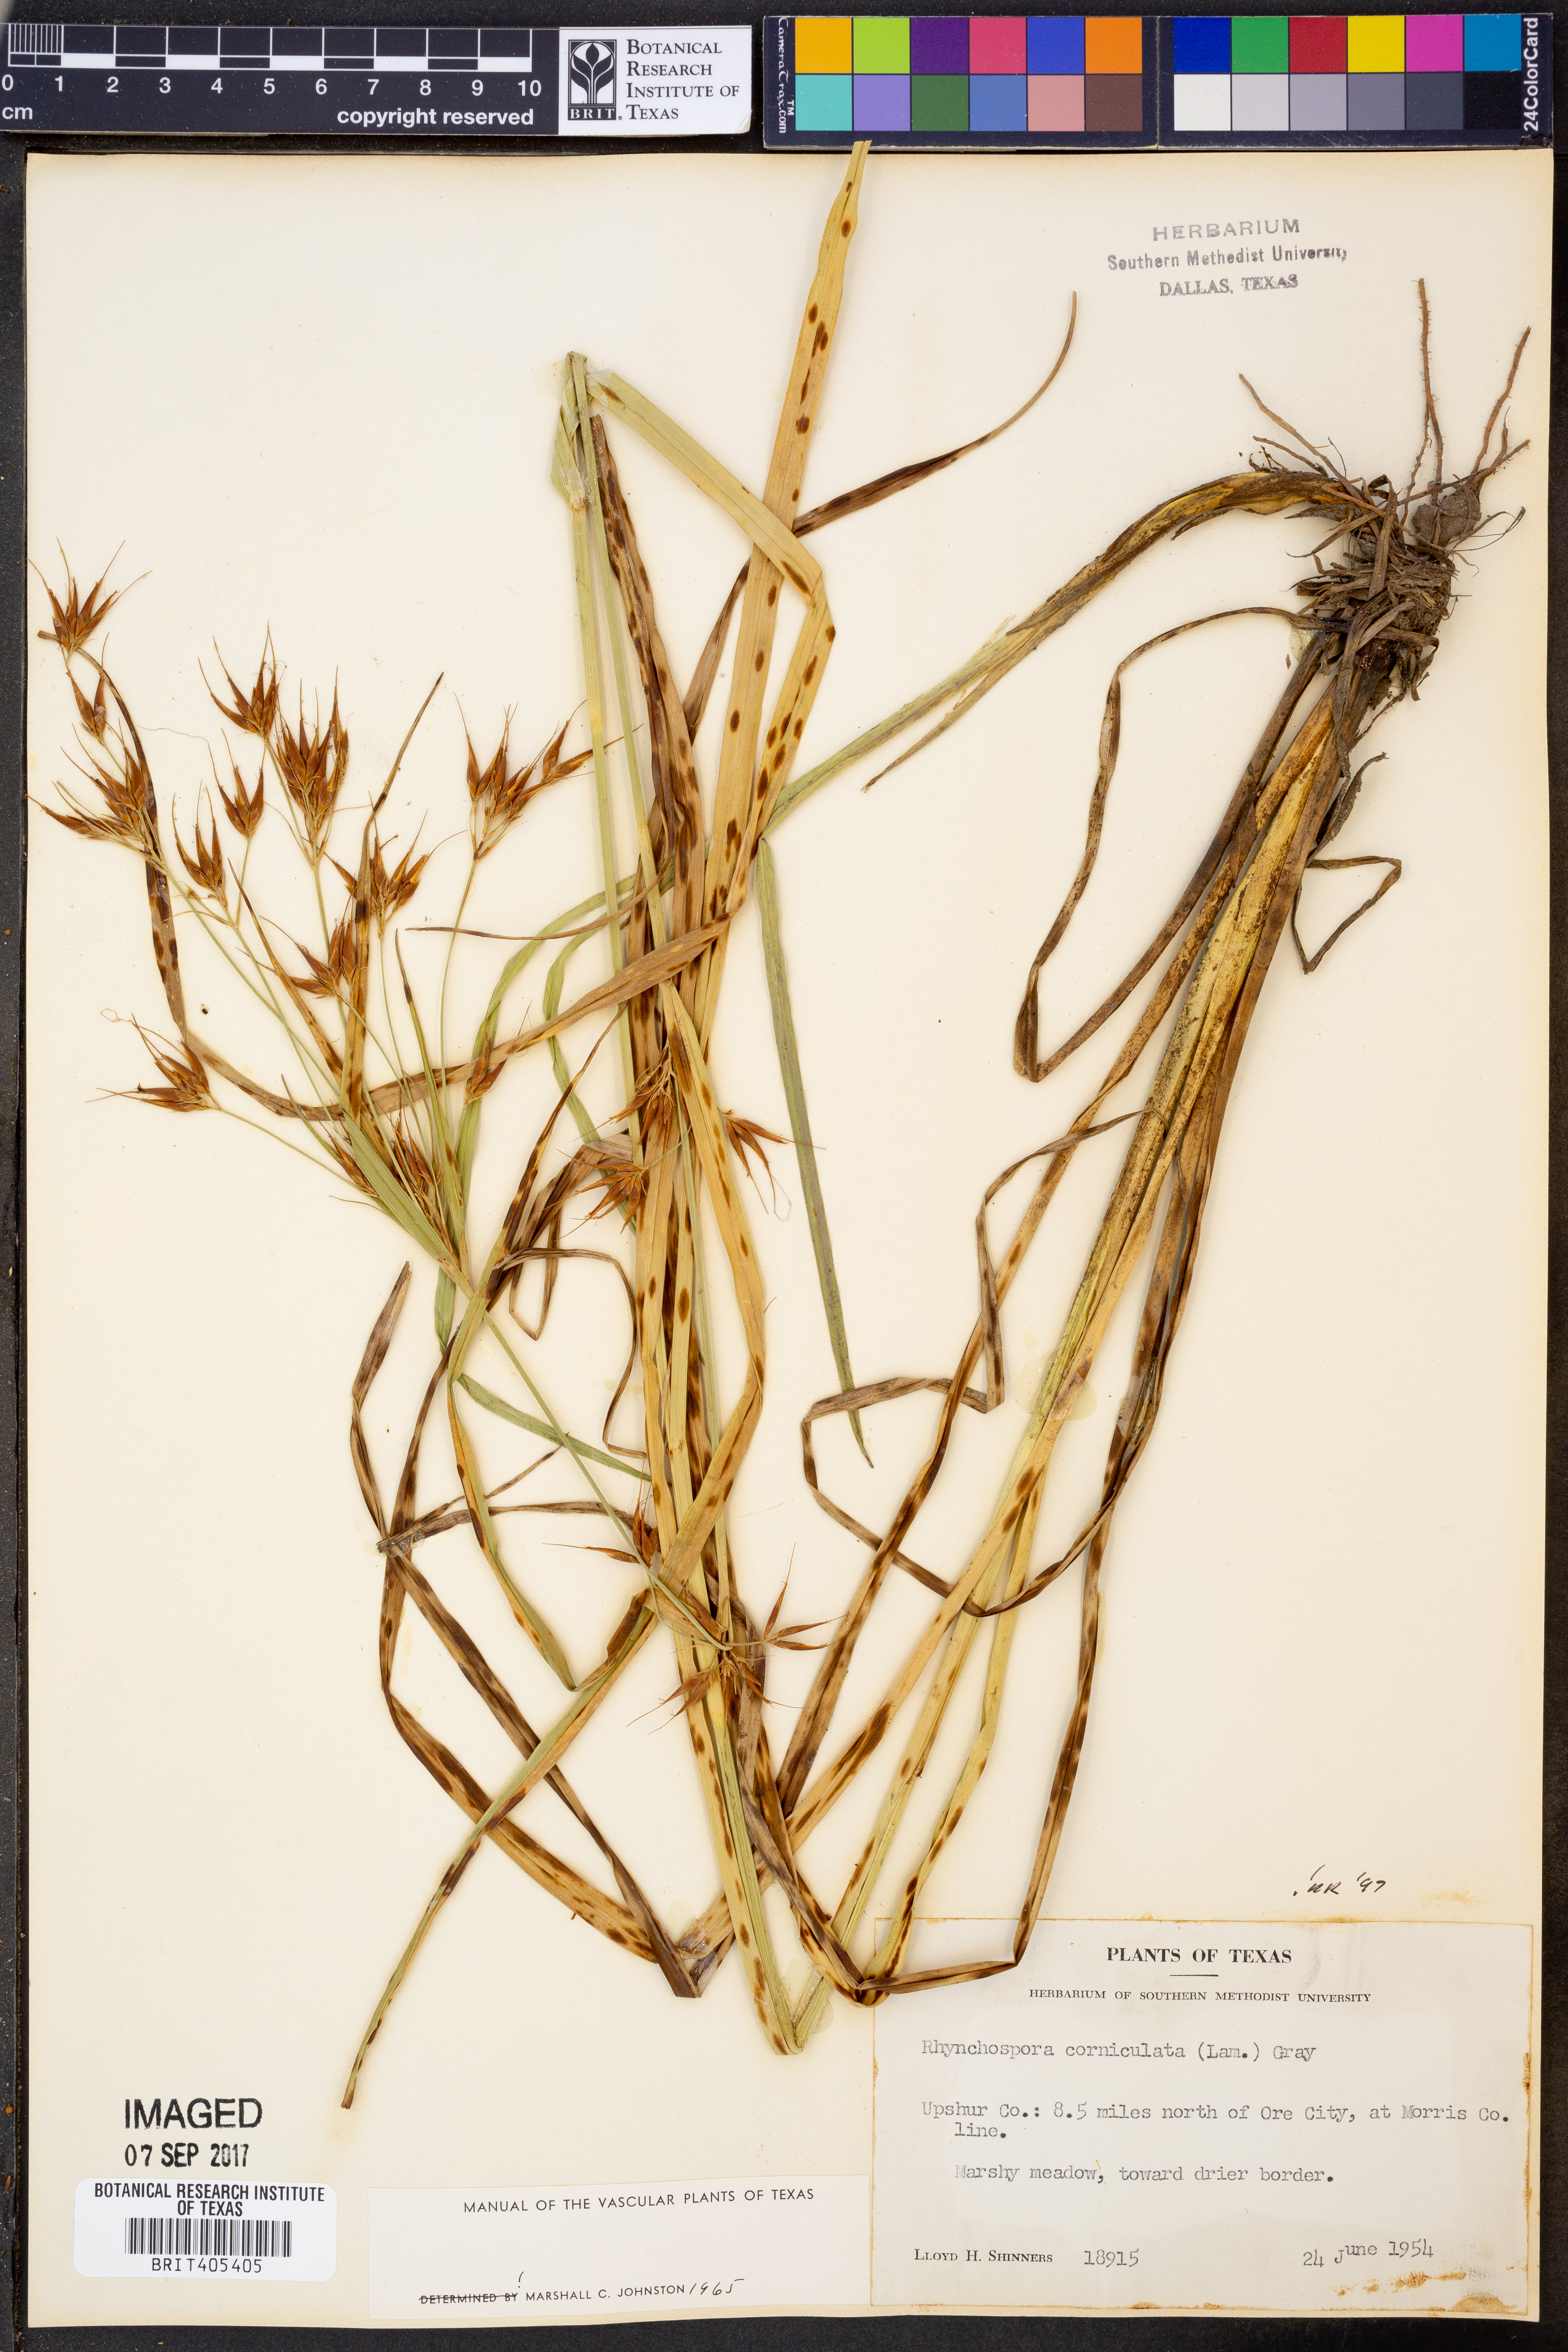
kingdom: Plantae
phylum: Tracheophyta
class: Liliopsida
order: Poales
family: Cyperaceae
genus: Rhynchospora
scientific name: Rhynchospora corniculata
